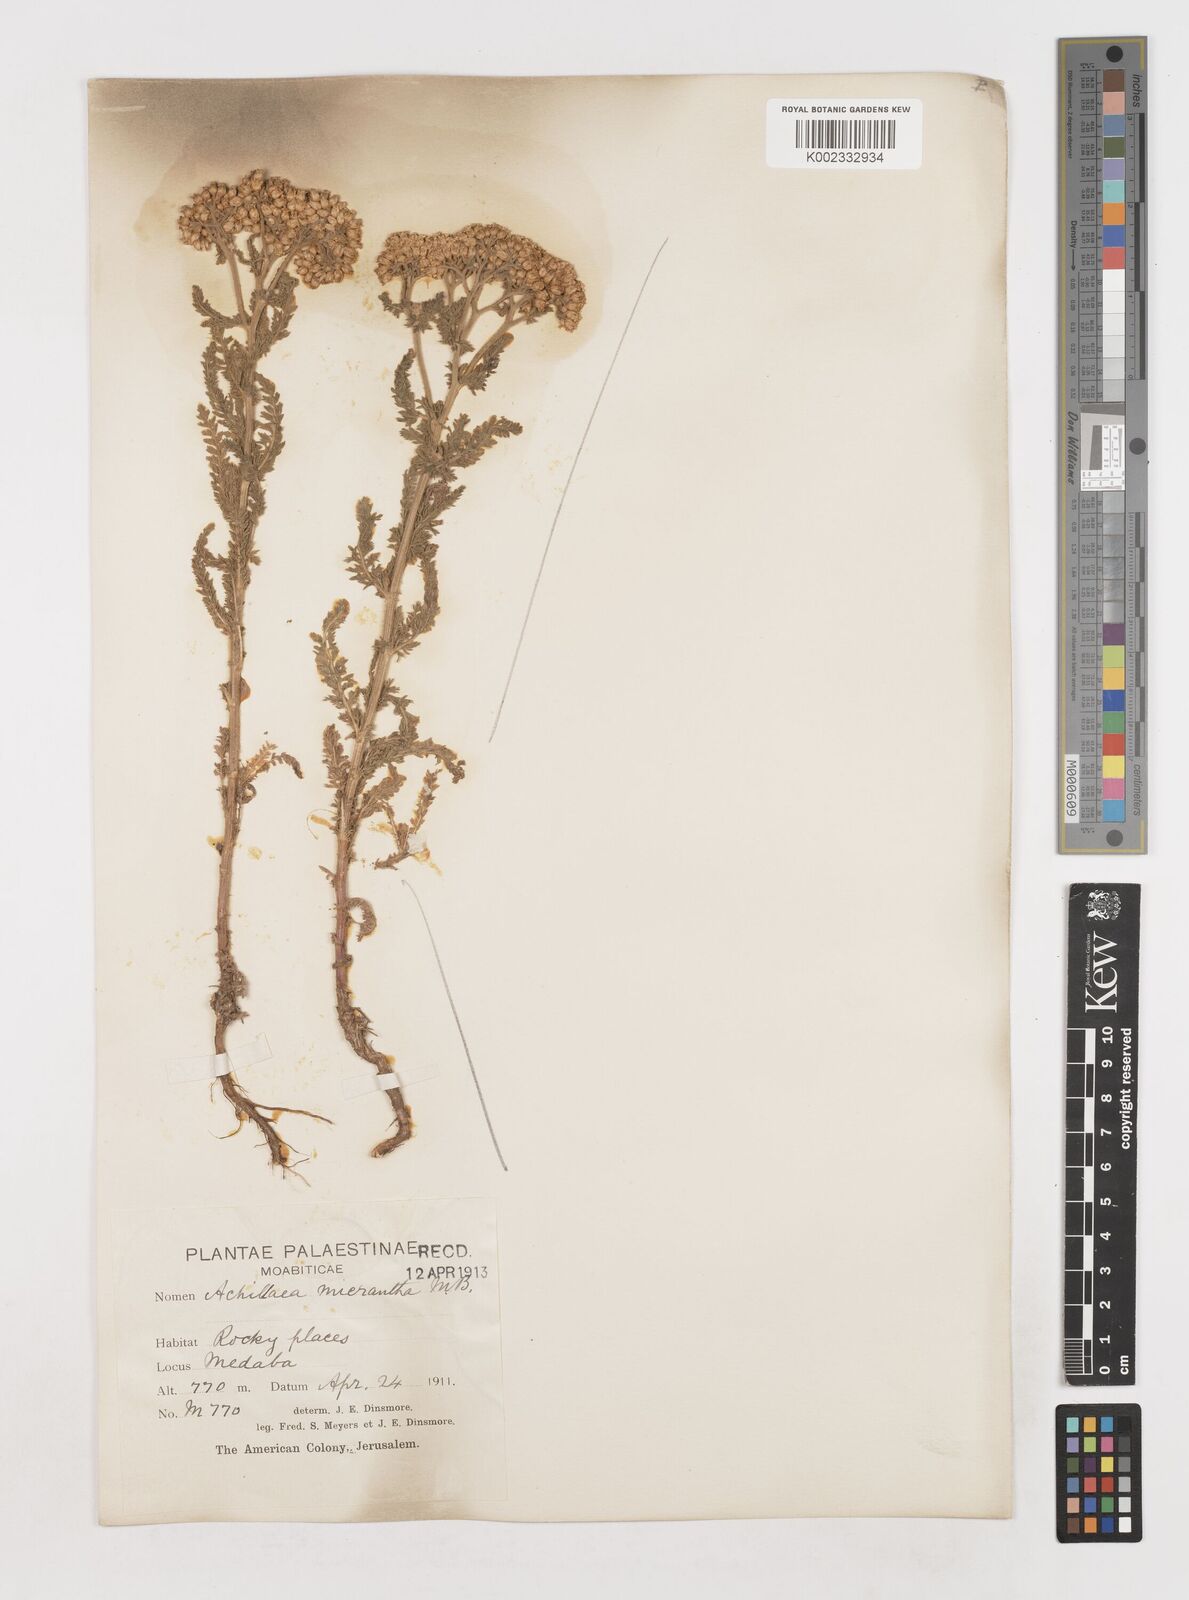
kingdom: Plantae
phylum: Tracheophyta
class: Magnoliopsida
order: Asterales
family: Asteraceae
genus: Achillea
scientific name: Achillea arabica
